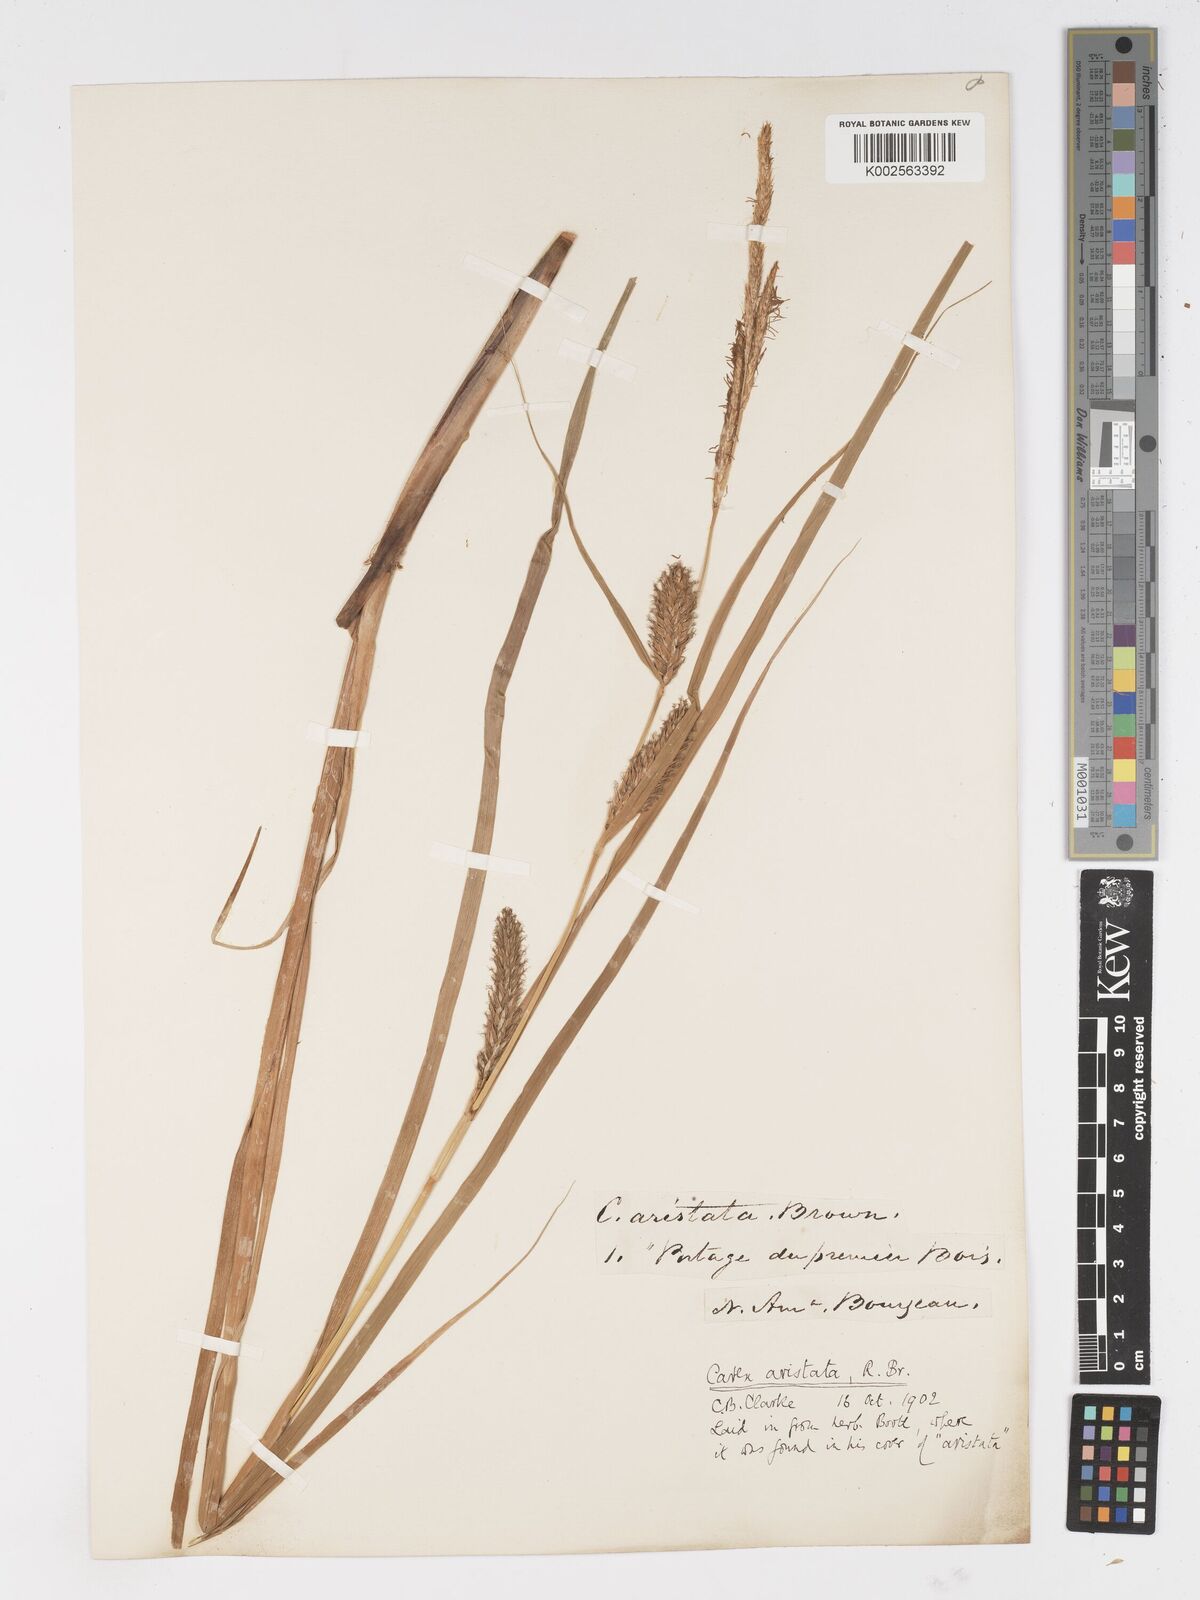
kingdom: Plantae
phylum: Tracheophyta
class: Liliopsida
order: Poales
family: Cyperaceae
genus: Carex
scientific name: Carex atherodes
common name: Wheat sedge
